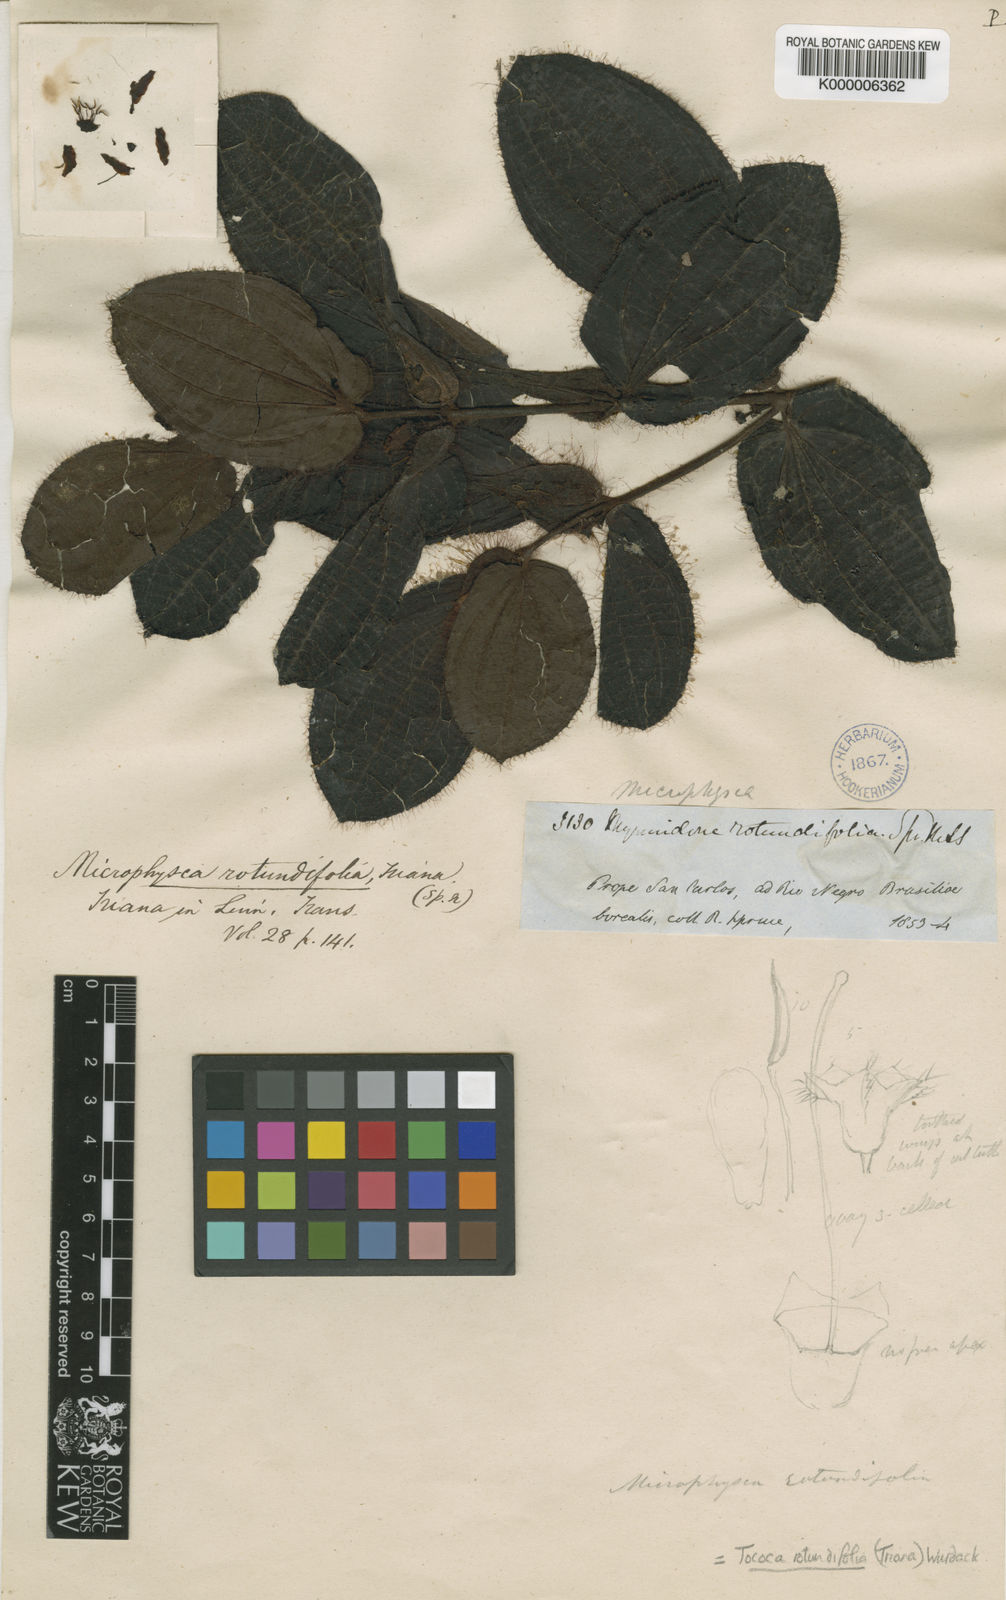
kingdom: Plantae
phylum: Tracheophyta
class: Magnoliopsida
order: Myrtales
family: Melastomataceae
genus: Miconia
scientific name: Miconia rubripetala
